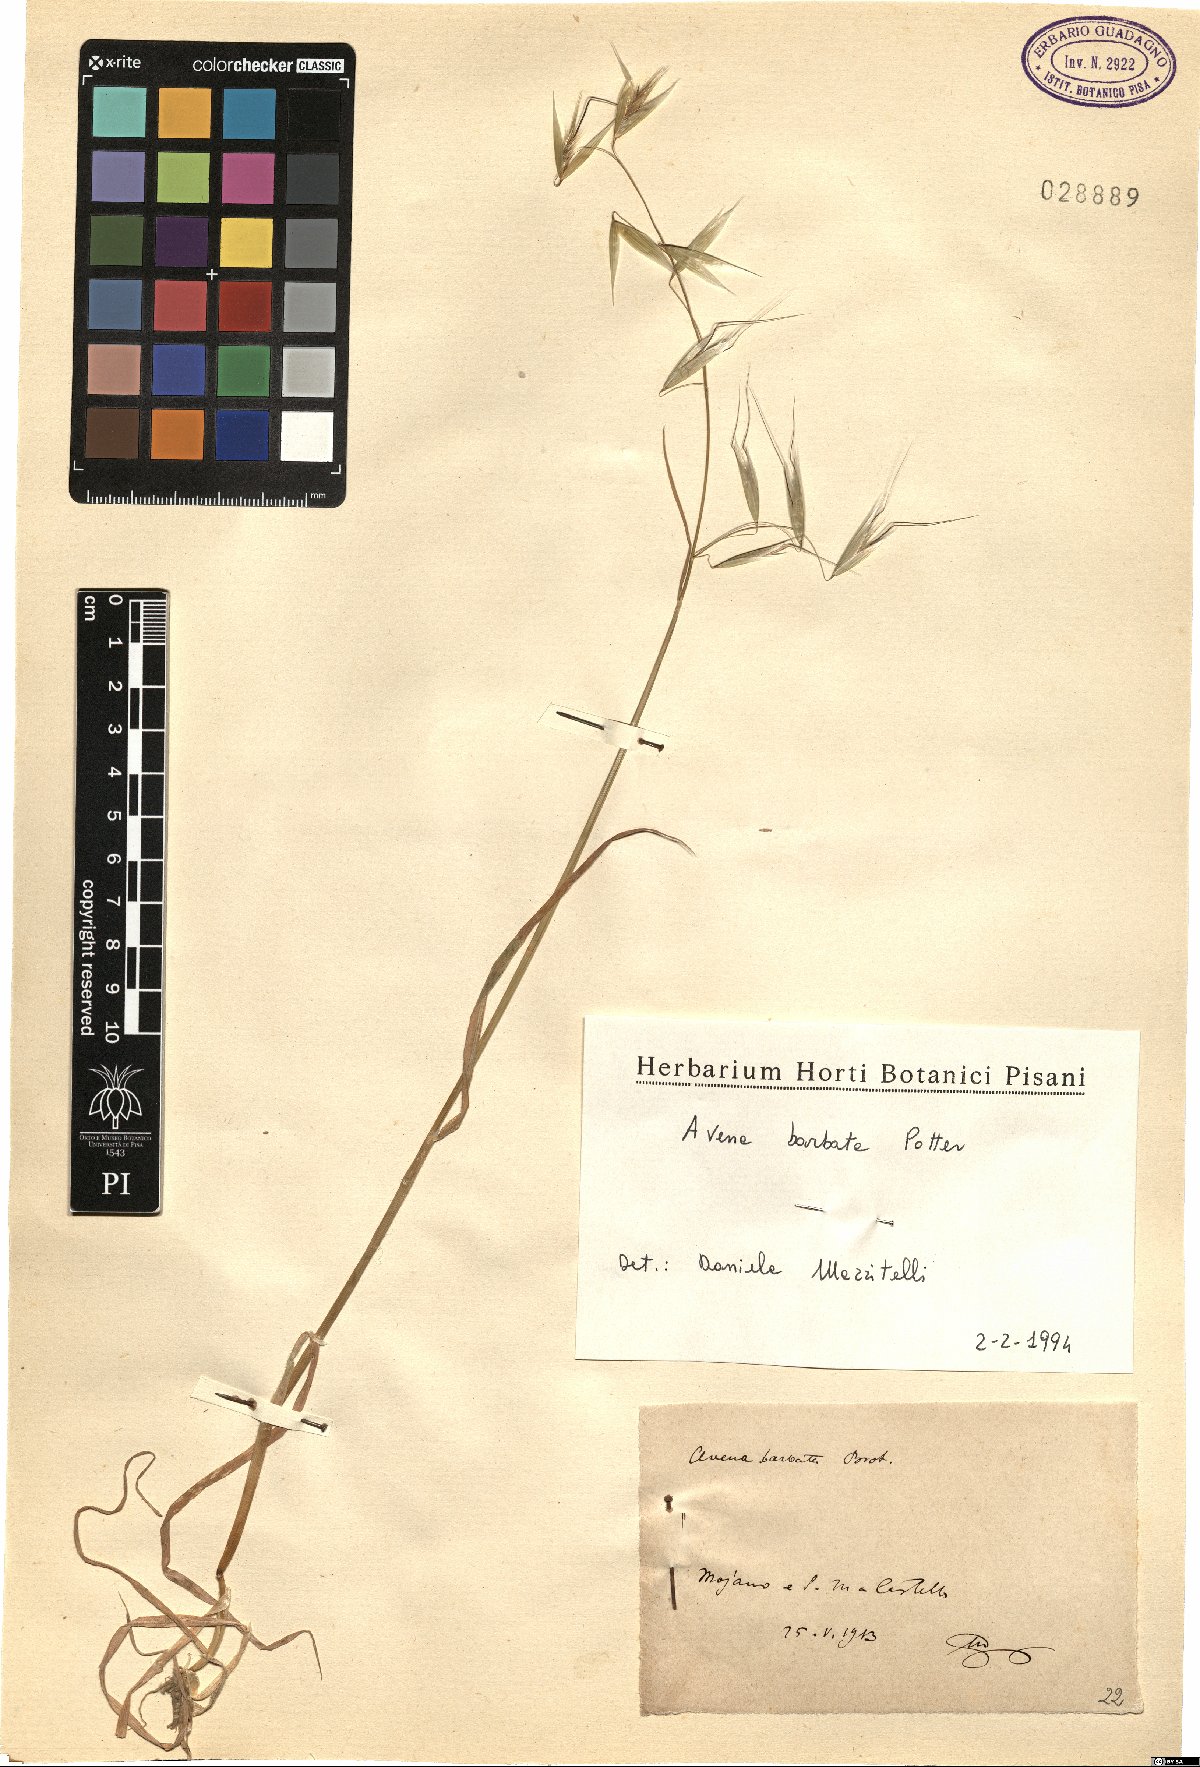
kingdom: Plantae
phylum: Tracheophyta
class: Liliopsida
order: Poales
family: Poaceae
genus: Avena
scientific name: Avena barbata
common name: Slender oat
